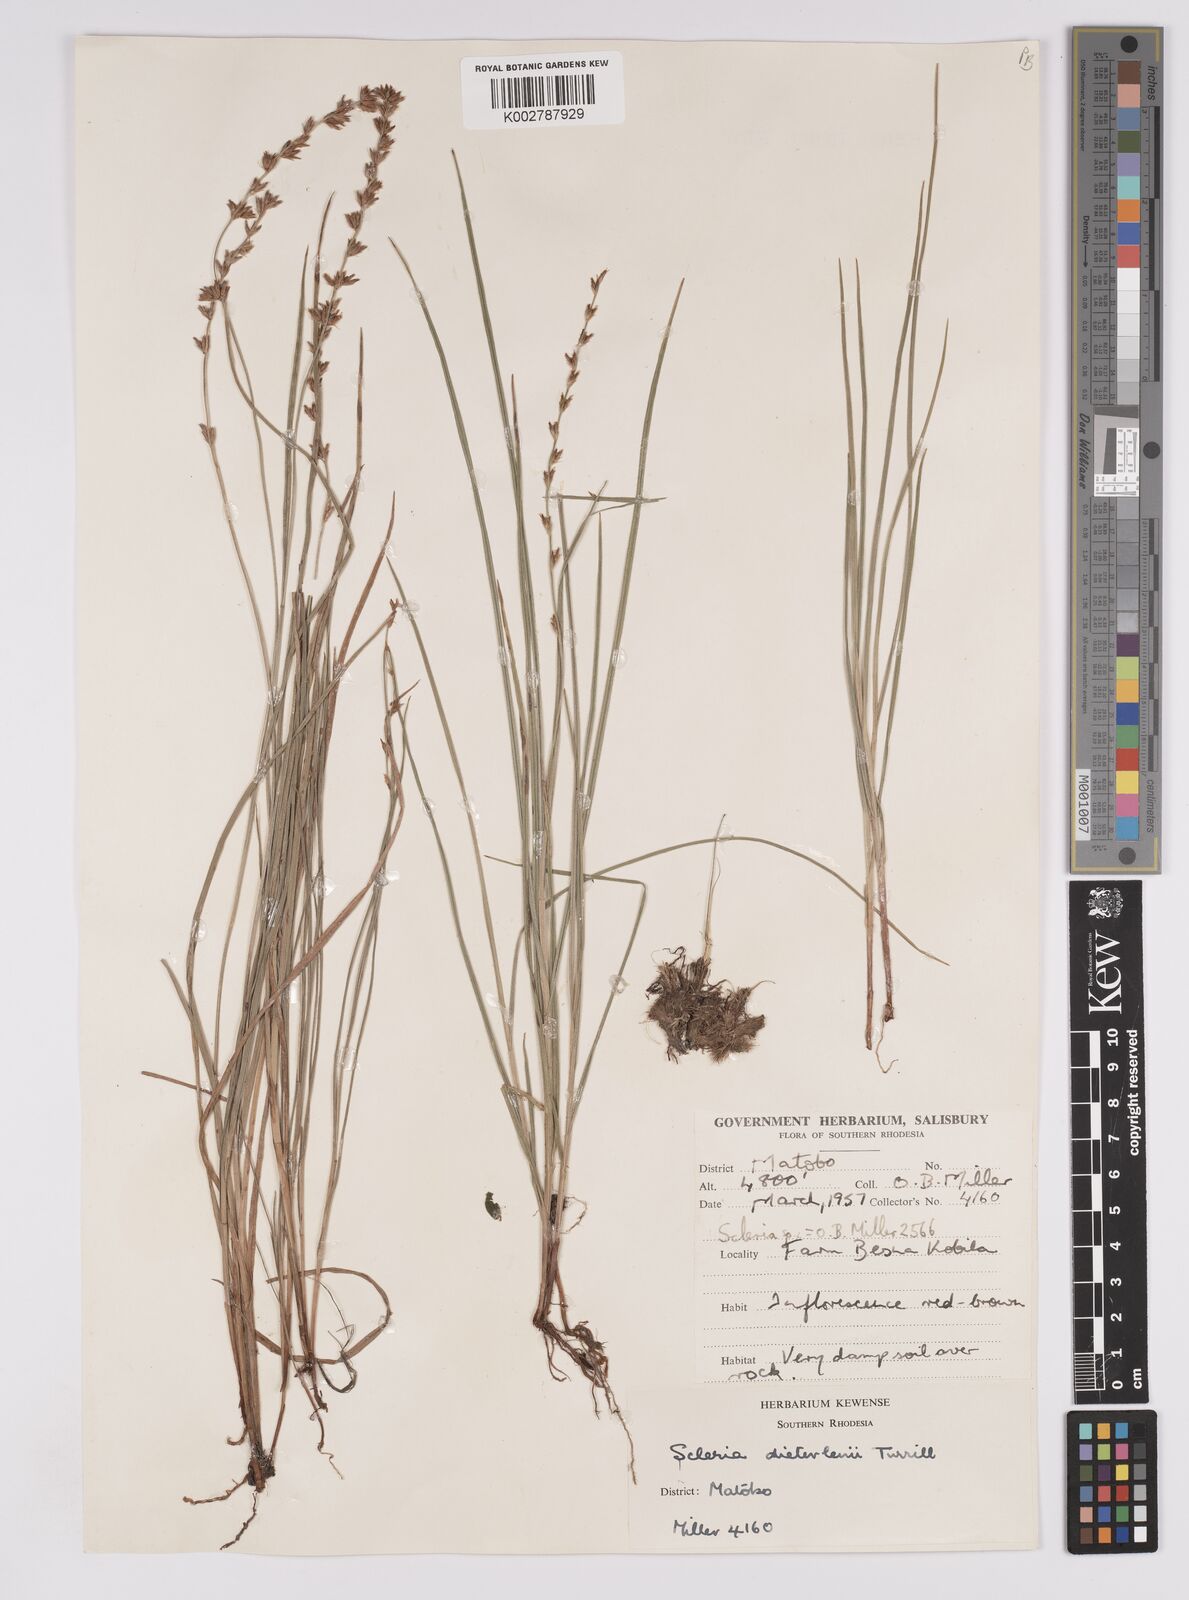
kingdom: Plantae
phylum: Tracheophyta
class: Liliopsida
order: Poales
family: Cyperaceae
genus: Scleria
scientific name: Scleria flexuosa
